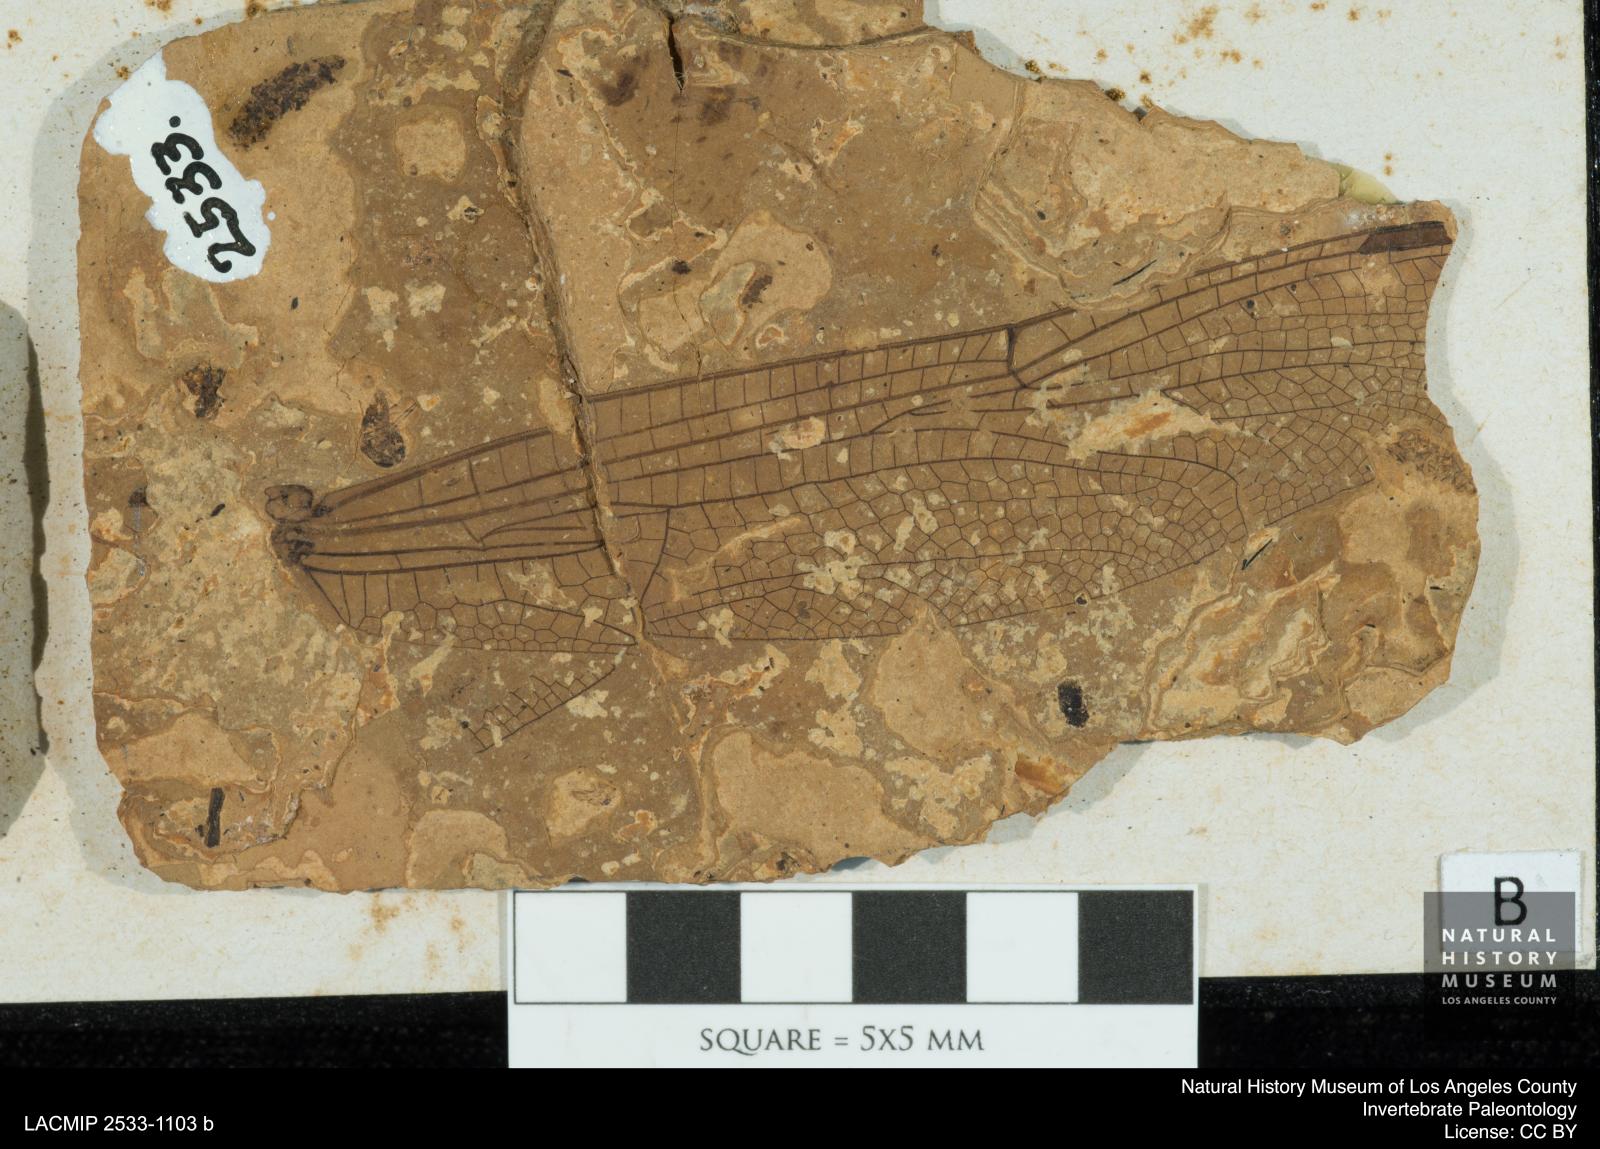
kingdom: Animalia
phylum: Arthropoda
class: Insecta
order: Odonata
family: Libellulidae
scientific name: Libellulidae
